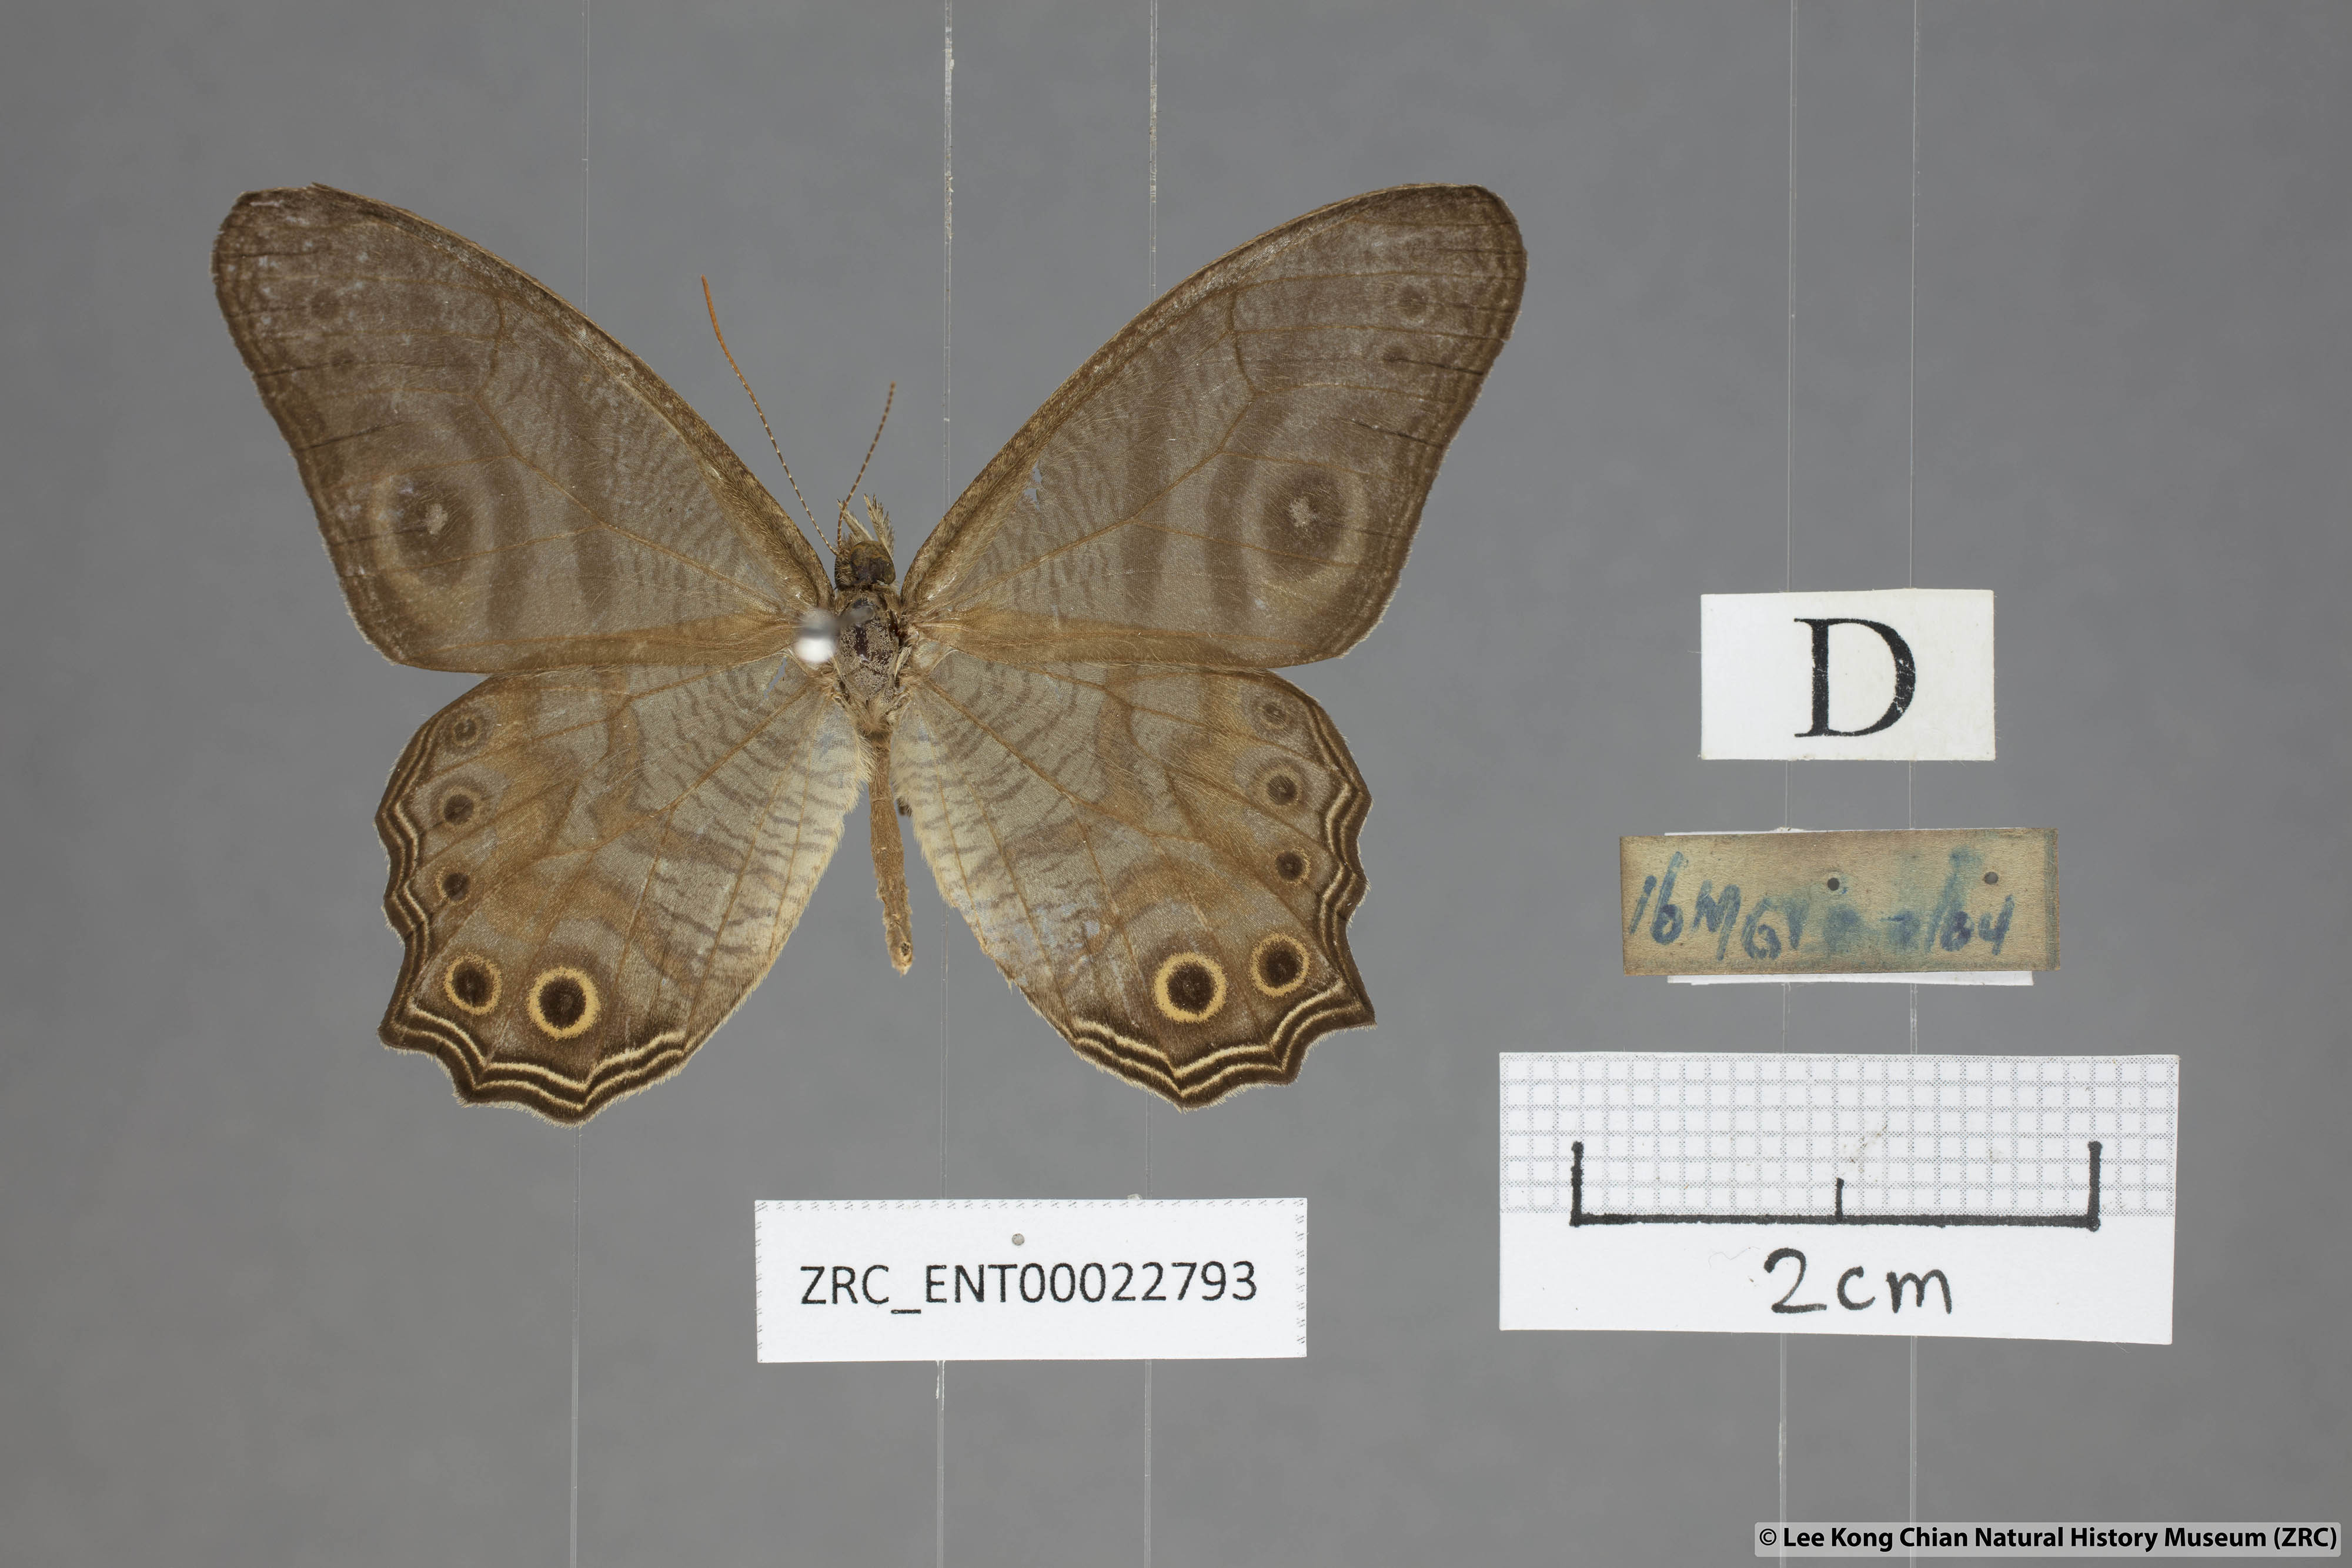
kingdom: Animalia
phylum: Arthropoda
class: Insecta
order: Lepidoptera
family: Nymphalidae
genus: Erites
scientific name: Erites angularis
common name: Angled cyclops
